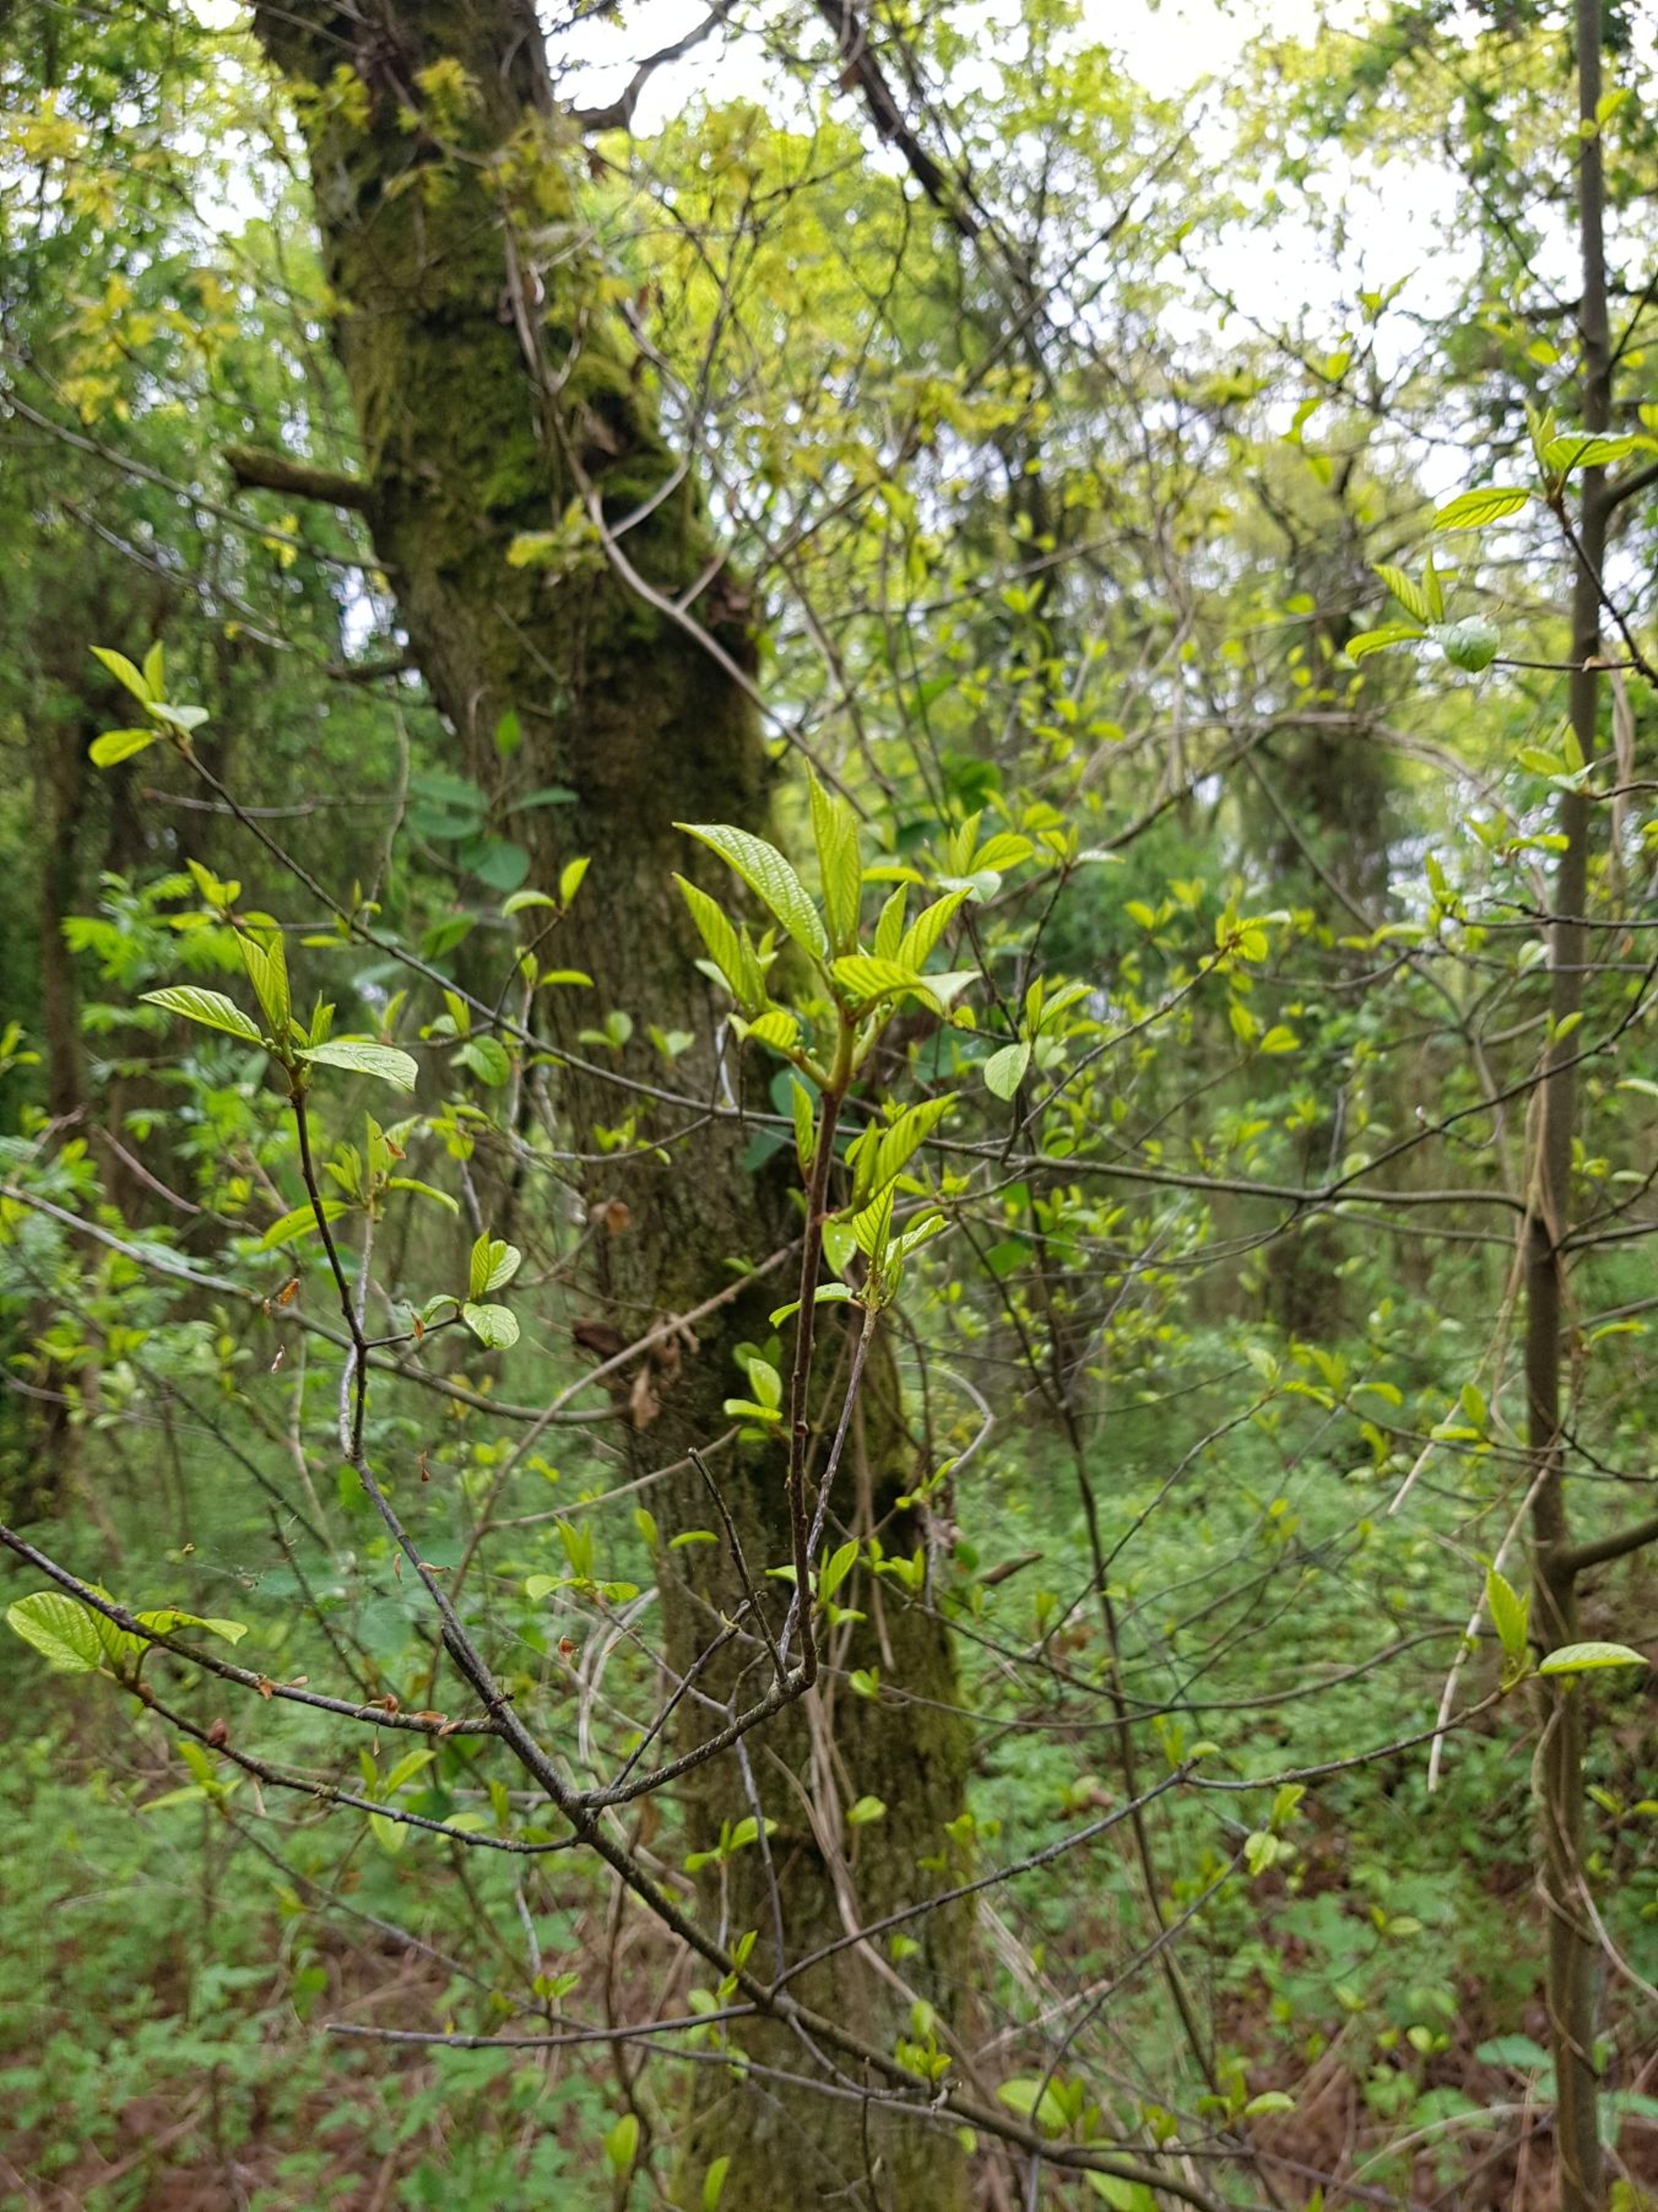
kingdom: Plantae
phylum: Tracheophyta
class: Magnoliopsida
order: Rosales
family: Rhamnaceae
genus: Frangula
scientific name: Frangula alnus
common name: Tørst
